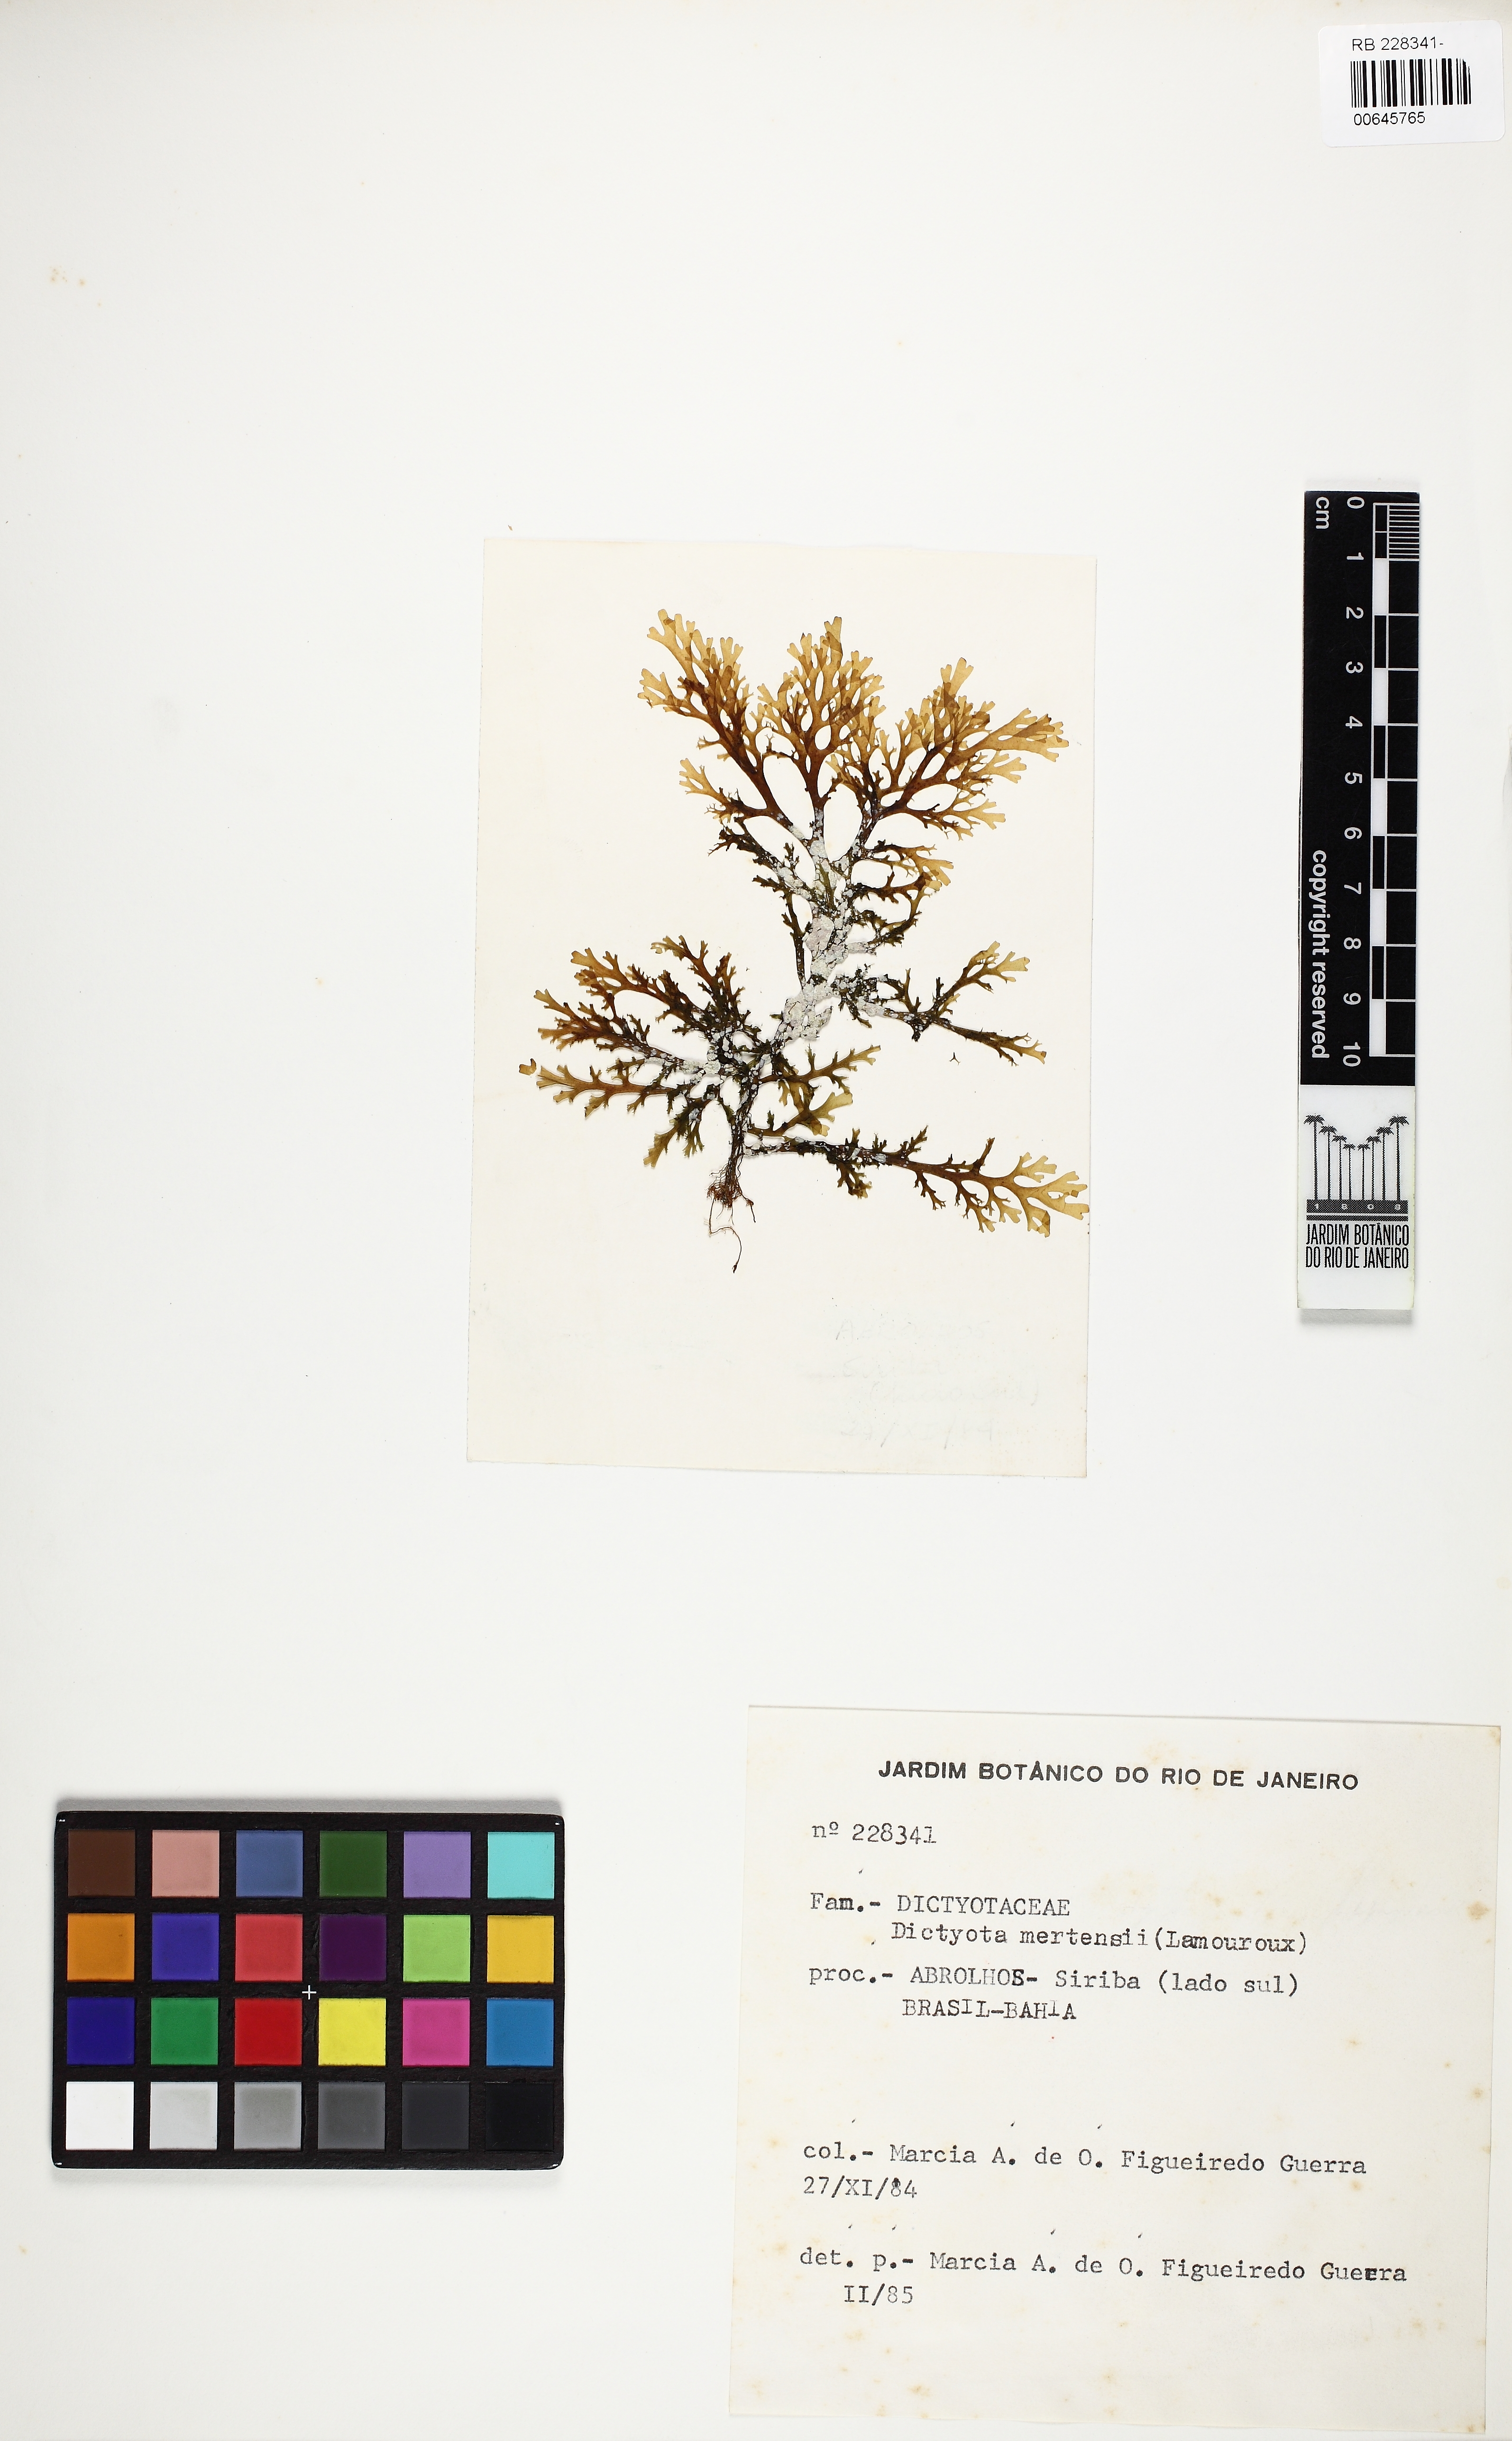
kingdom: Chromista
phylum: Ochrophyta
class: Phaeophyceae
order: Dictyotales
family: Dictyotaceae
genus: Dictyota
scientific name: Dictyota mertensii
